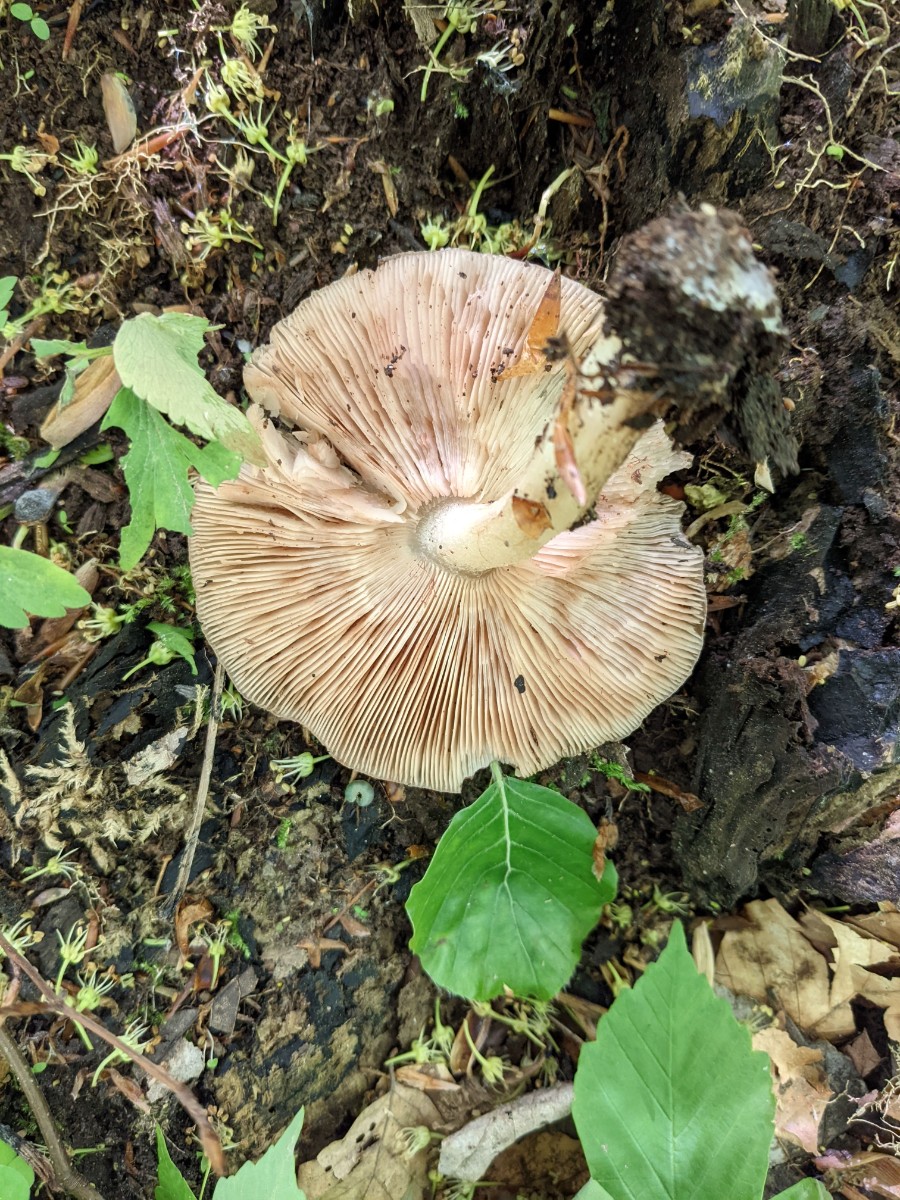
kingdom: Fungi
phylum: Basidiomycota
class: Agaricomycetes
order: Agaricales
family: Pluteaceae
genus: Pluteus
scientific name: Pluteus cervinus
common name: sodfarvet skærmhat
